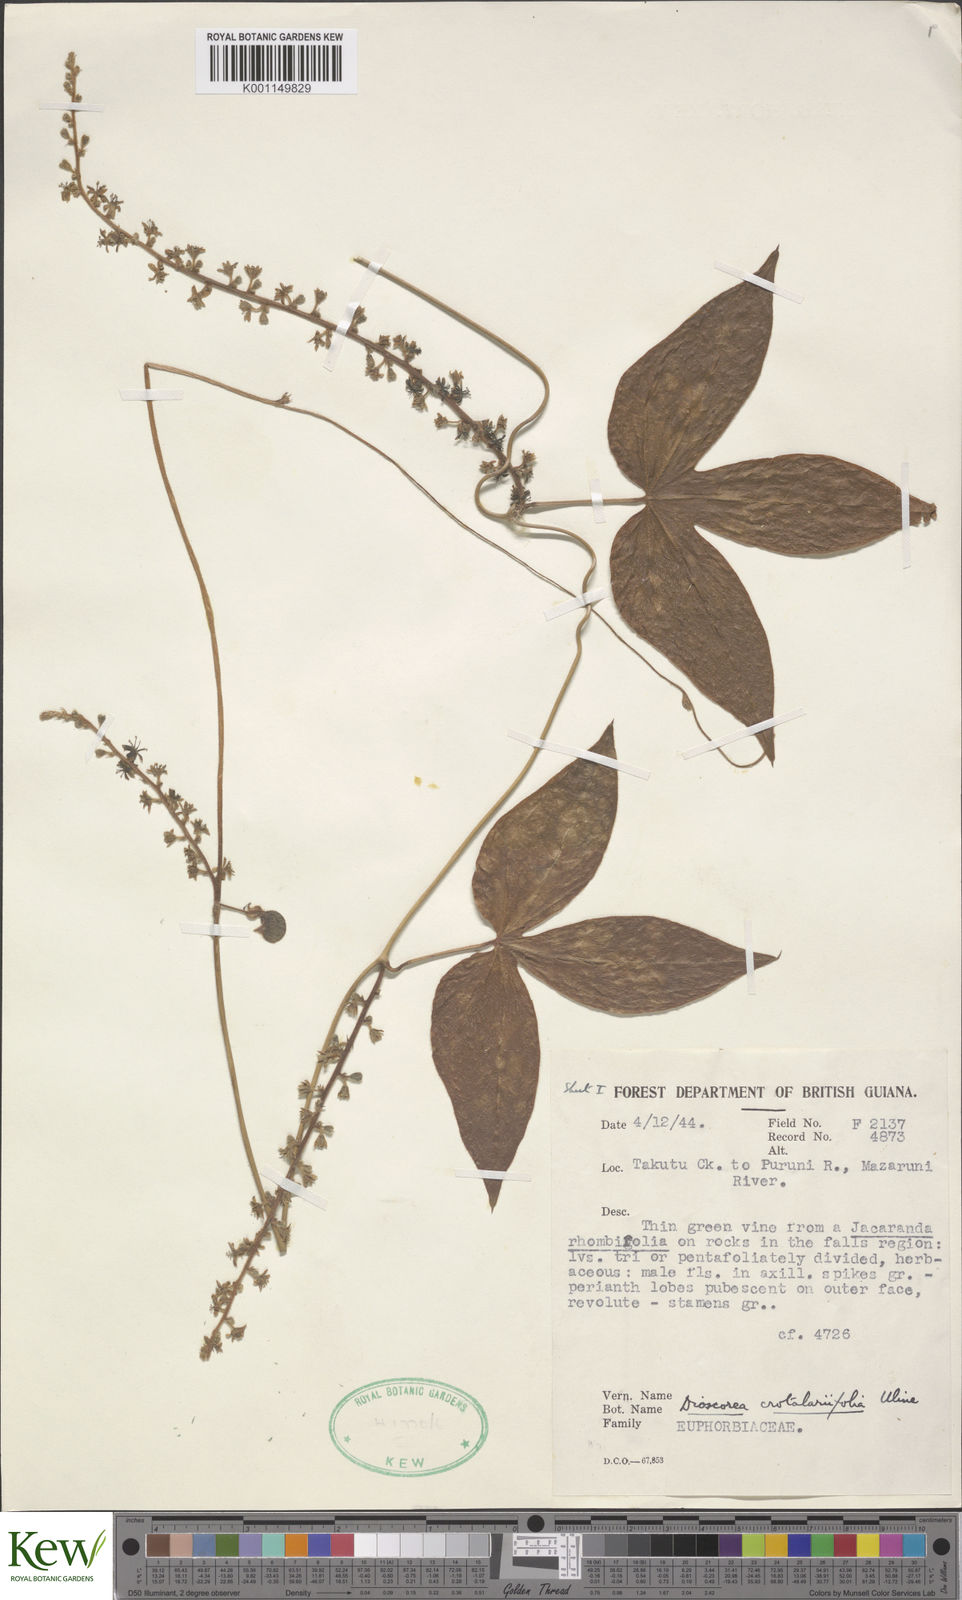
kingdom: Plantae
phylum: Tracheophyta
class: Liliopsida
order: Dioscoreales
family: Dioscoreaceae
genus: Dioscorea
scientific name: Dioscorea crotalariifolia
